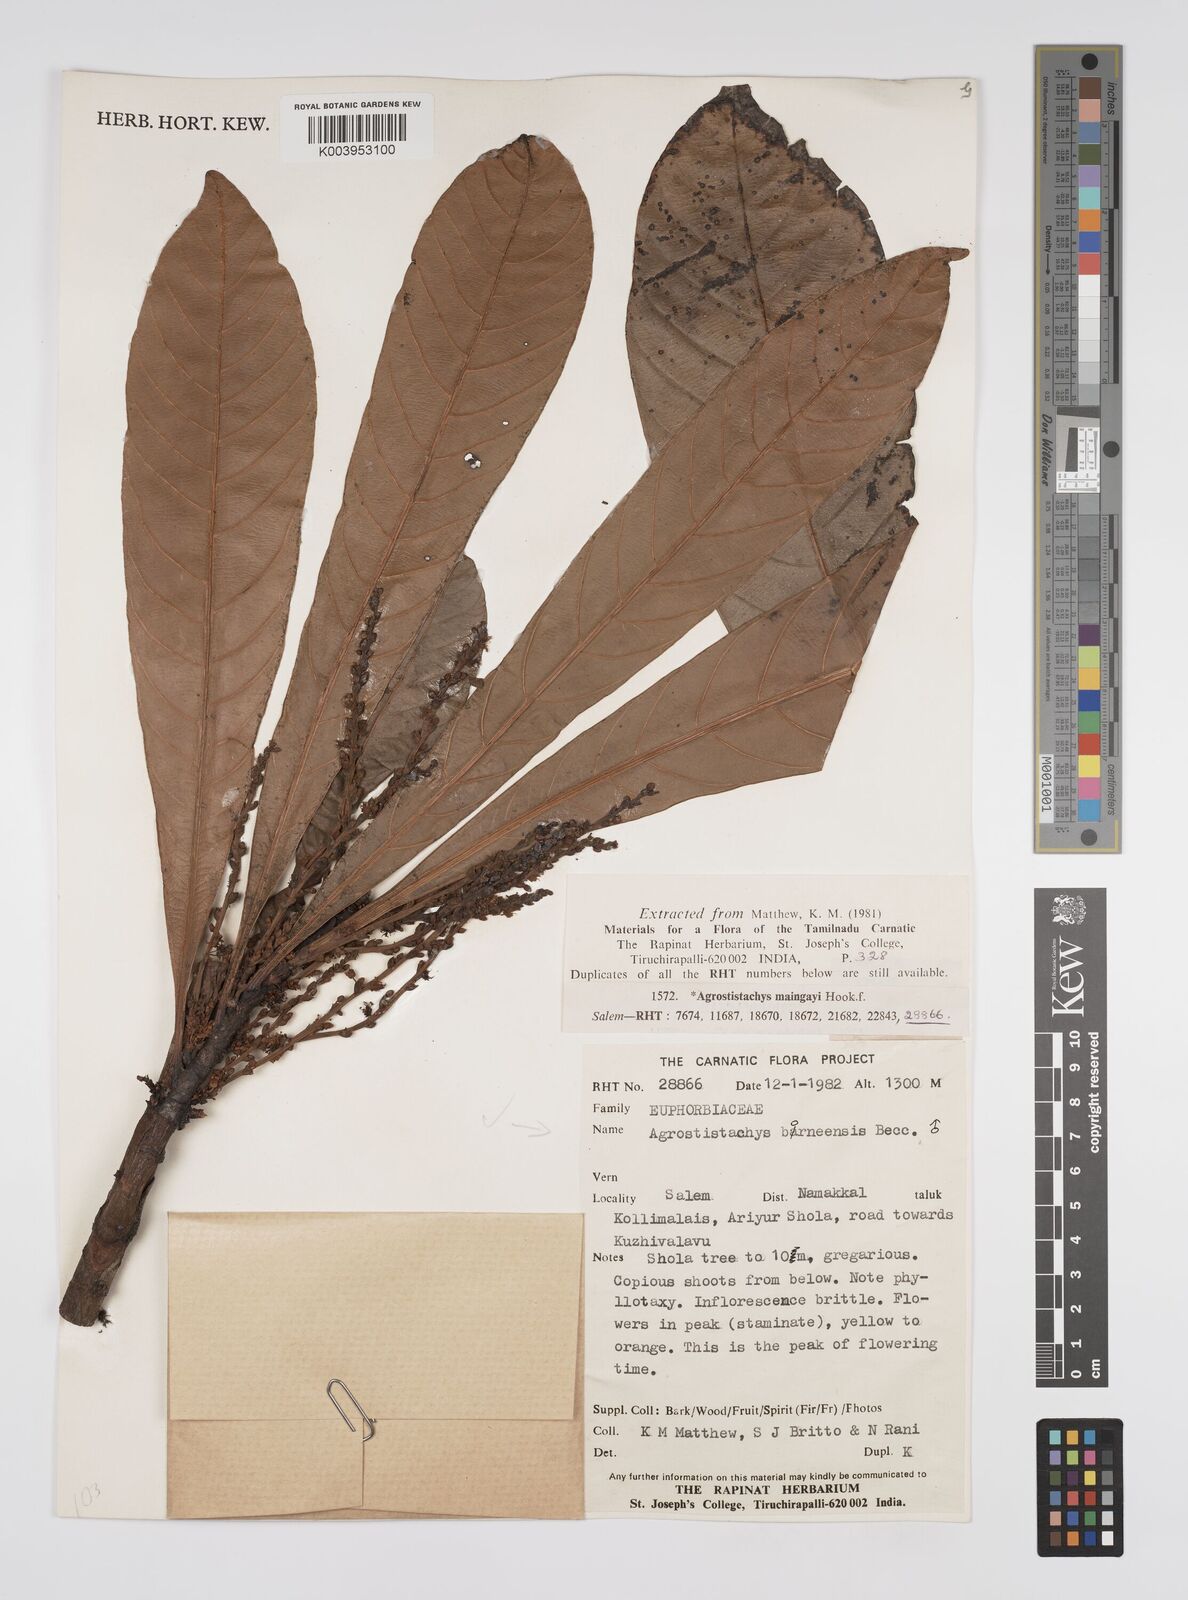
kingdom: Plantae
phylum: Tracheophyta
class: Magnoliopsida
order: Malpighiales
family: Euphorbiaceae
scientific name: Euphorbiaceae
